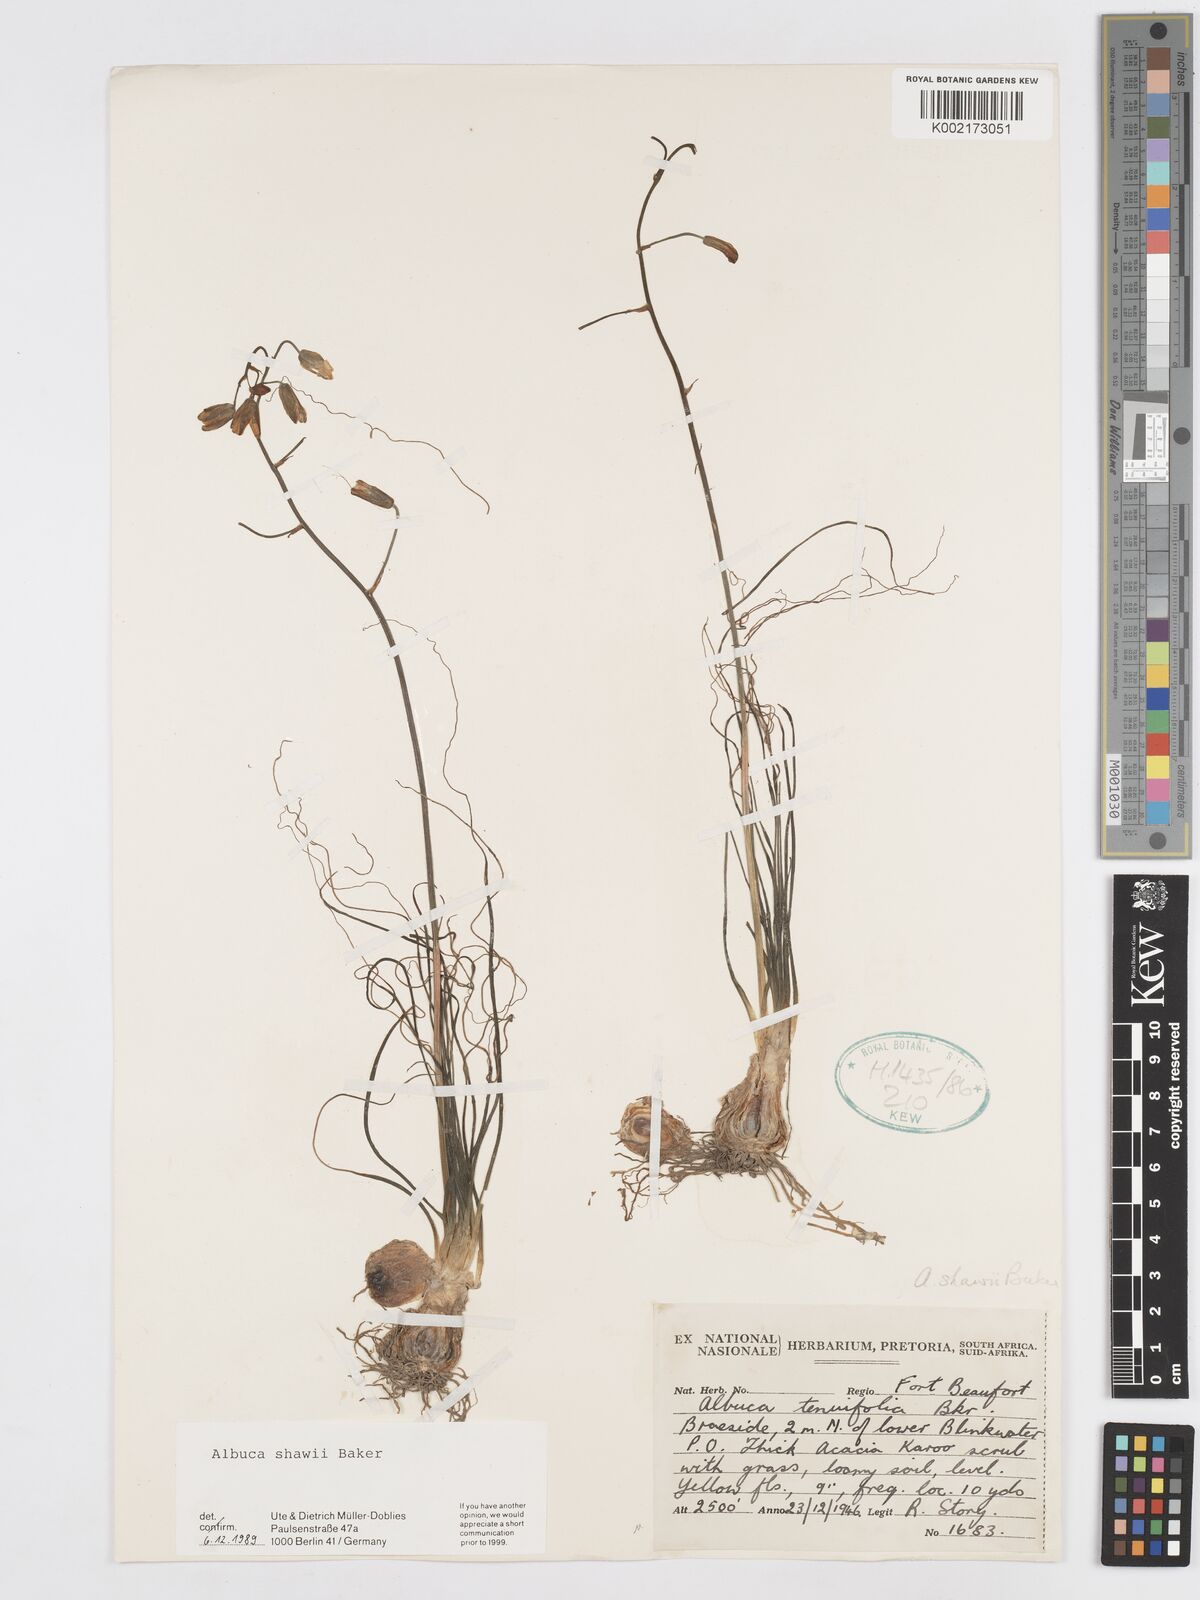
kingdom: Plantae
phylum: Tracheophyta
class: Liliopsida
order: Asparagales
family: Asparagaceae
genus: Albuca
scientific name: Albuca shawii
